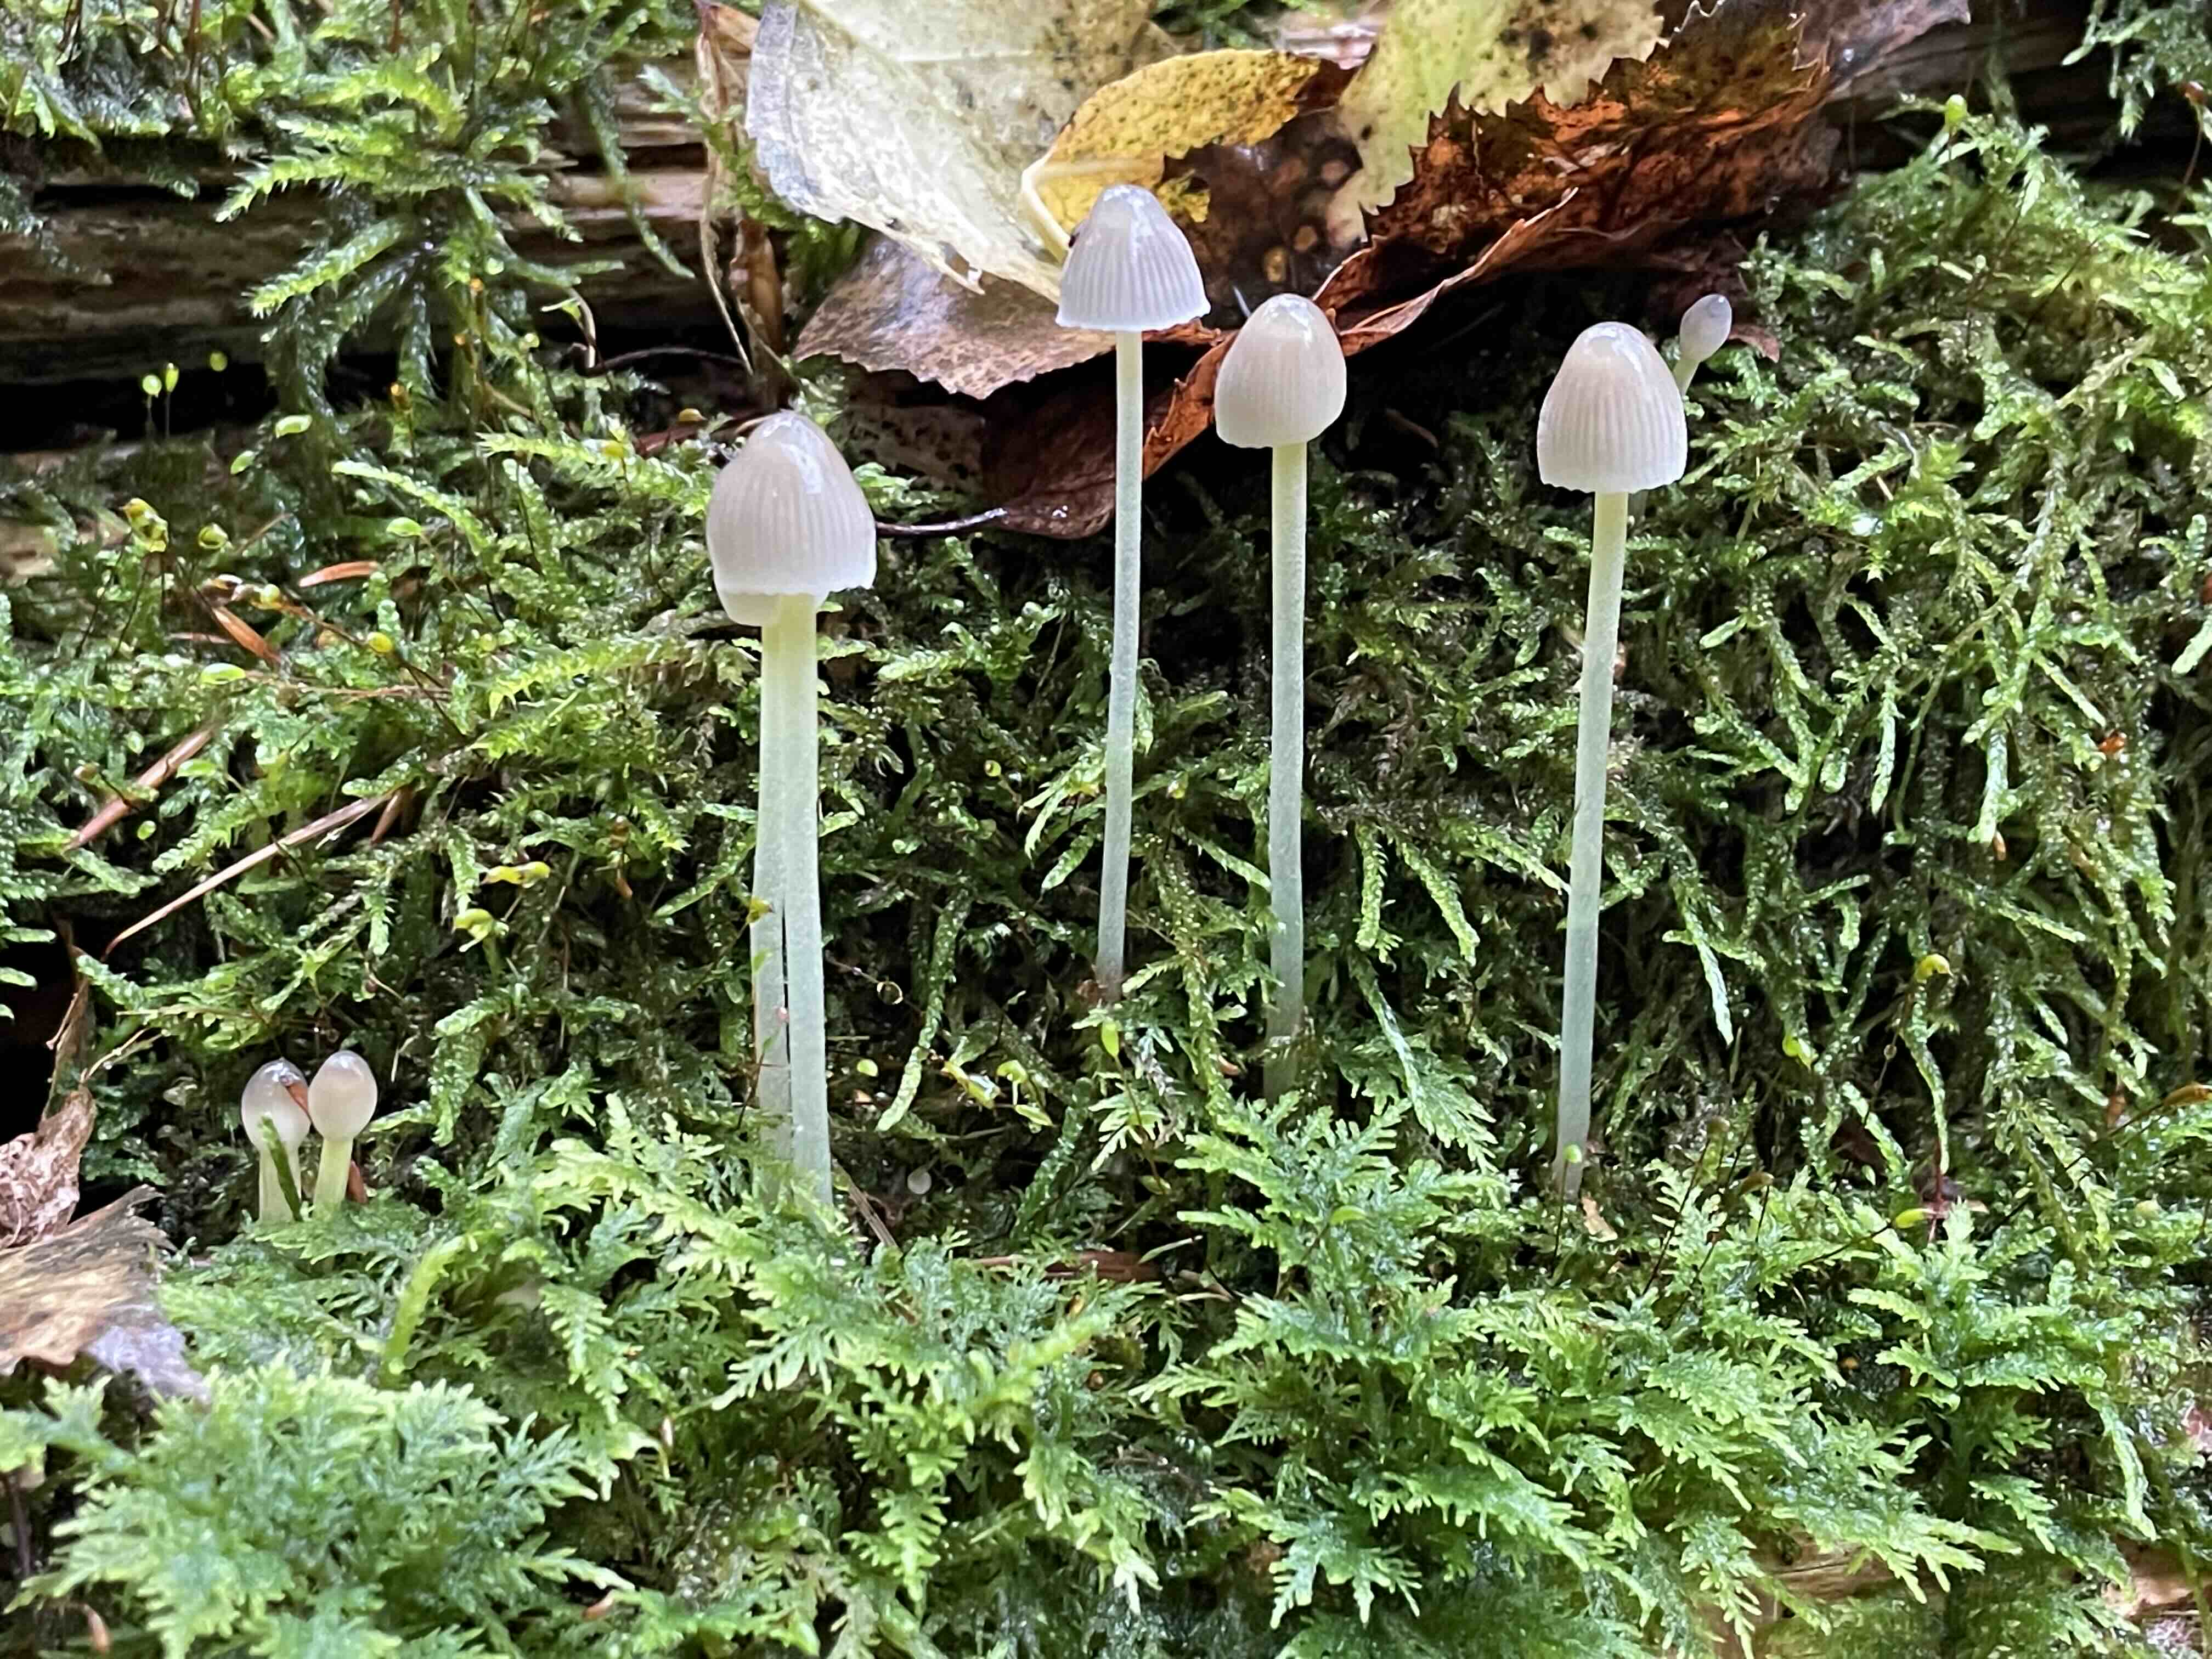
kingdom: Fungi
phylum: Basidiomycota
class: Agaricomycetes
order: Agaricales
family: Mycenaceae
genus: Mycena
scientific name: Mycena epipterygia
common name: gulstokket huesvamp
